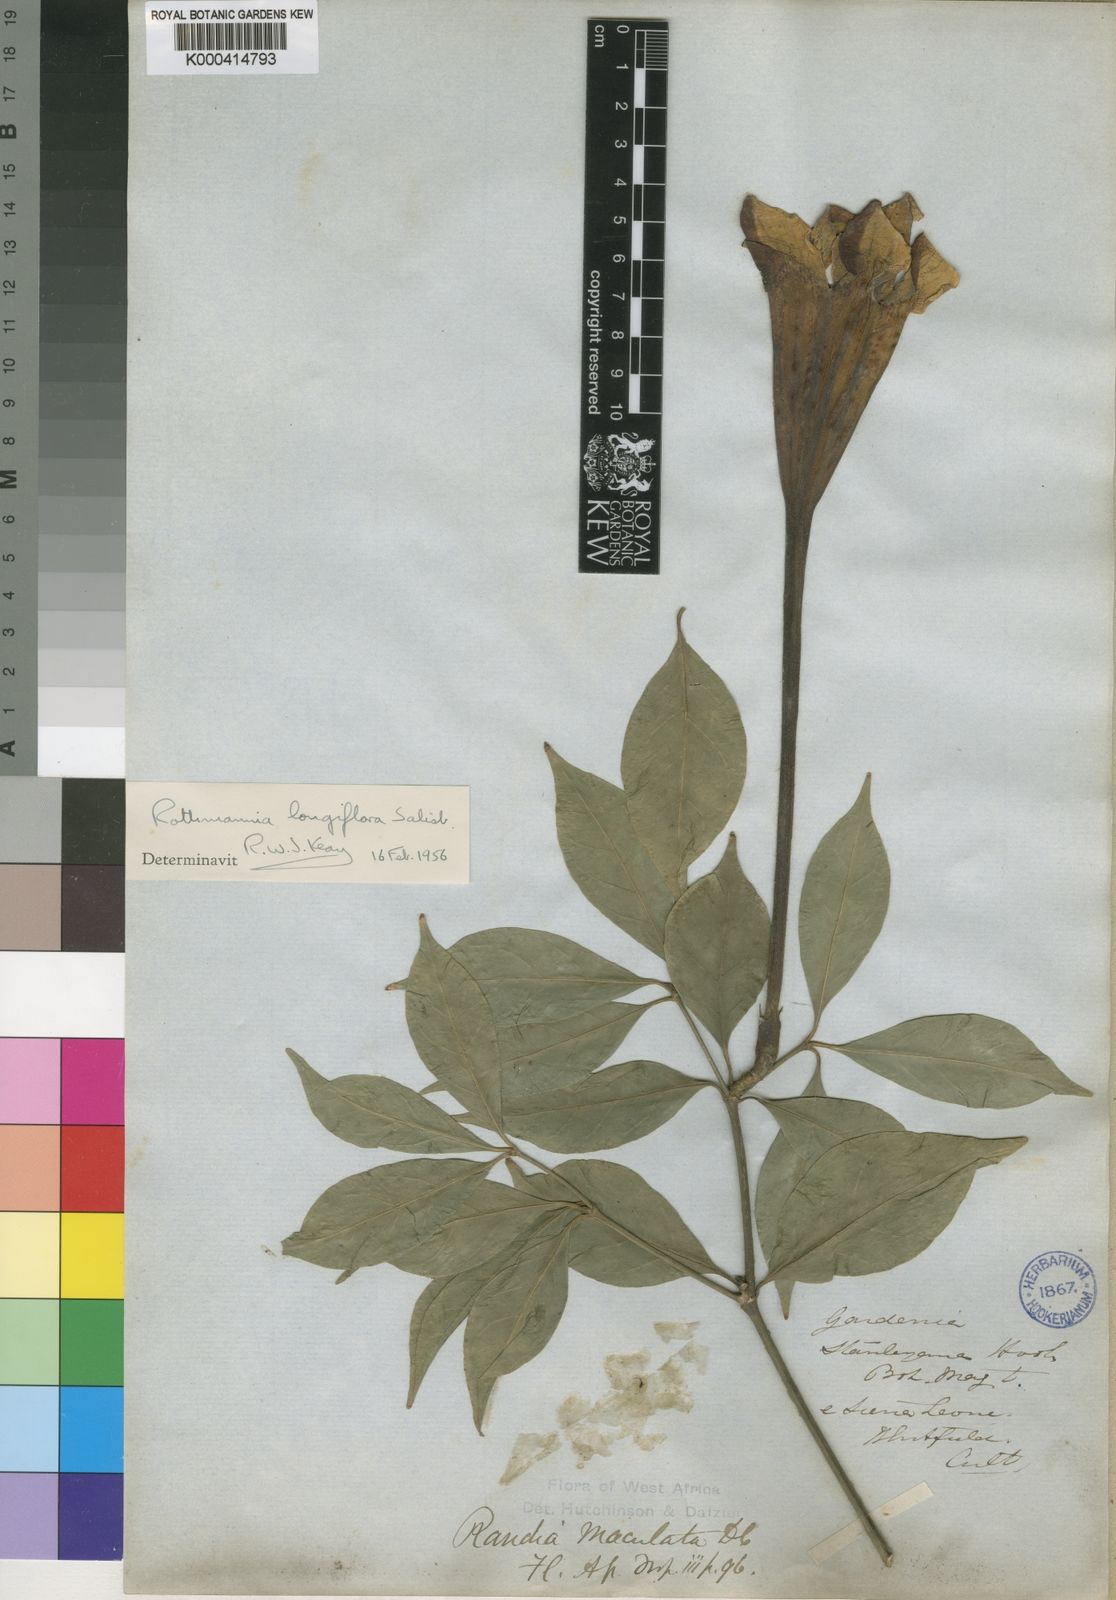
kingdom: Plantae
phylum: Tracheophyta
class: Magnoliopsida
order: Gentianales
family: Rubiaceae
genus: Rothmannia
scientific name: Rothmannia longiflora
